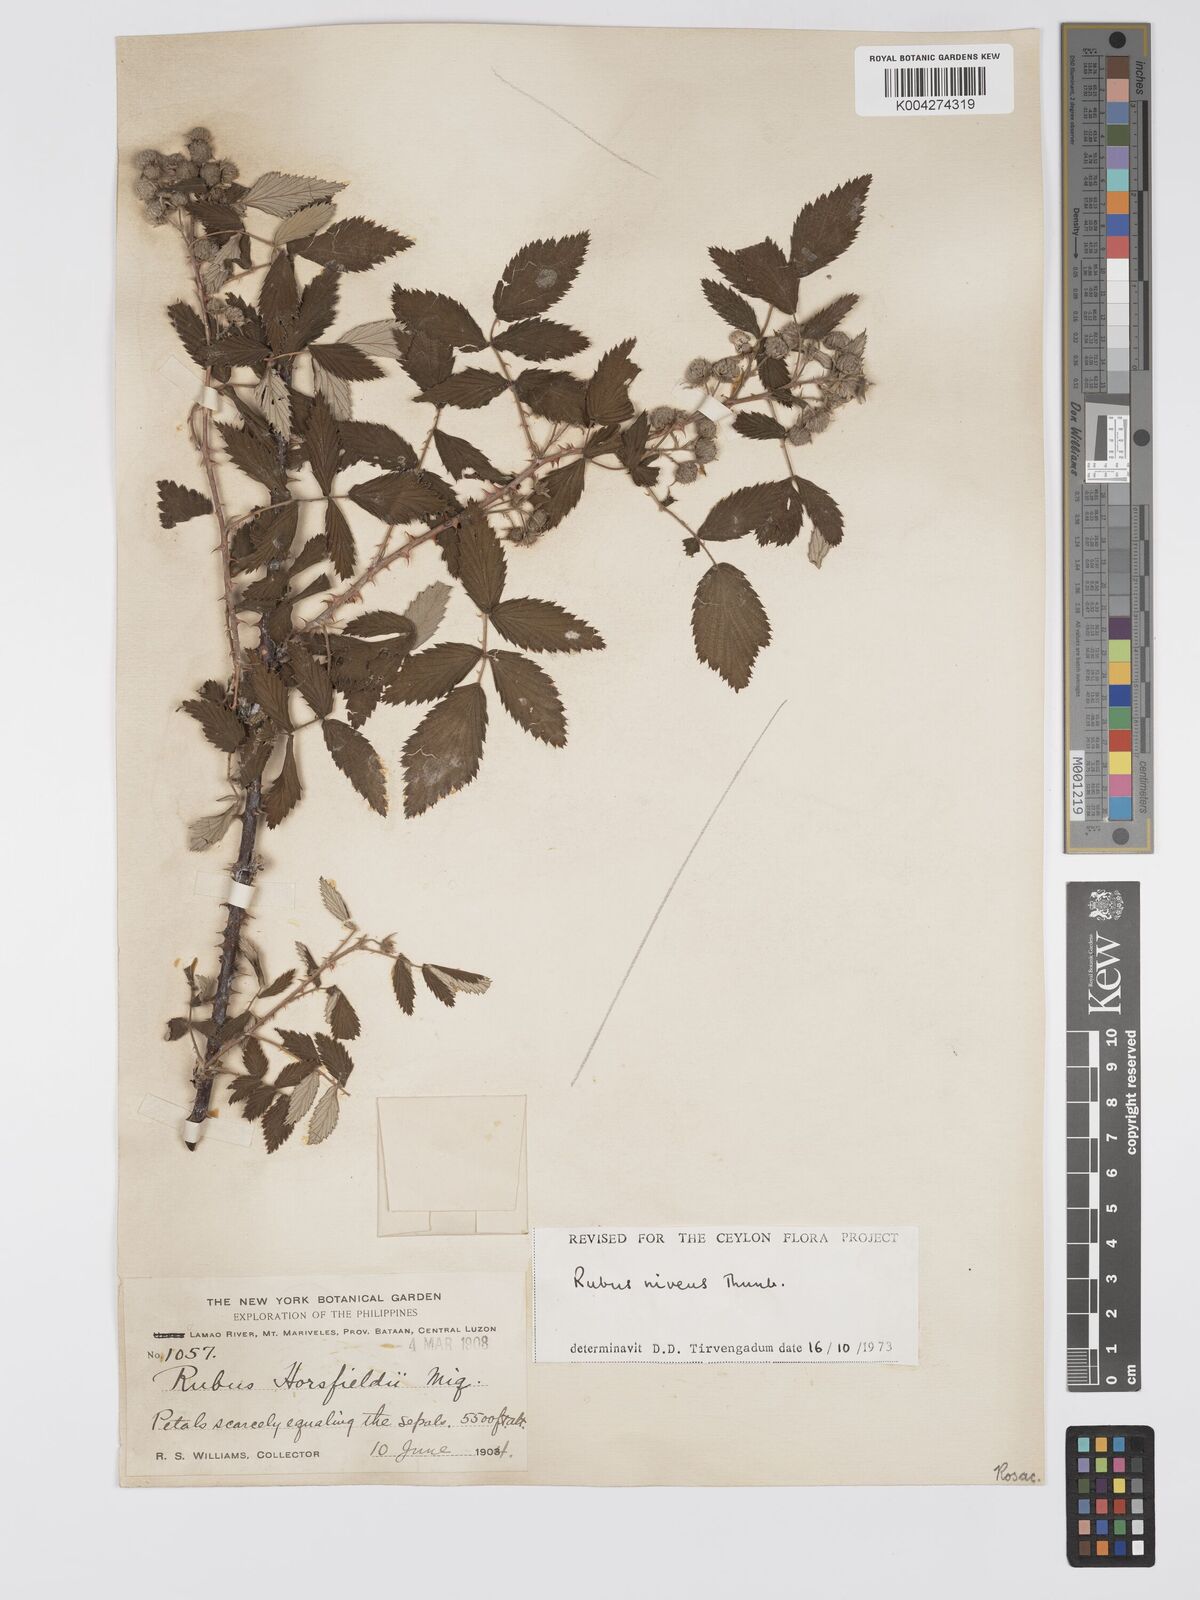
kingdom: Plantae
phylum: Tracheophyta
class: Magnoliopsida
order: Rosales
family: Rosaceae
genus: Rubus
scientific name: Rubus
